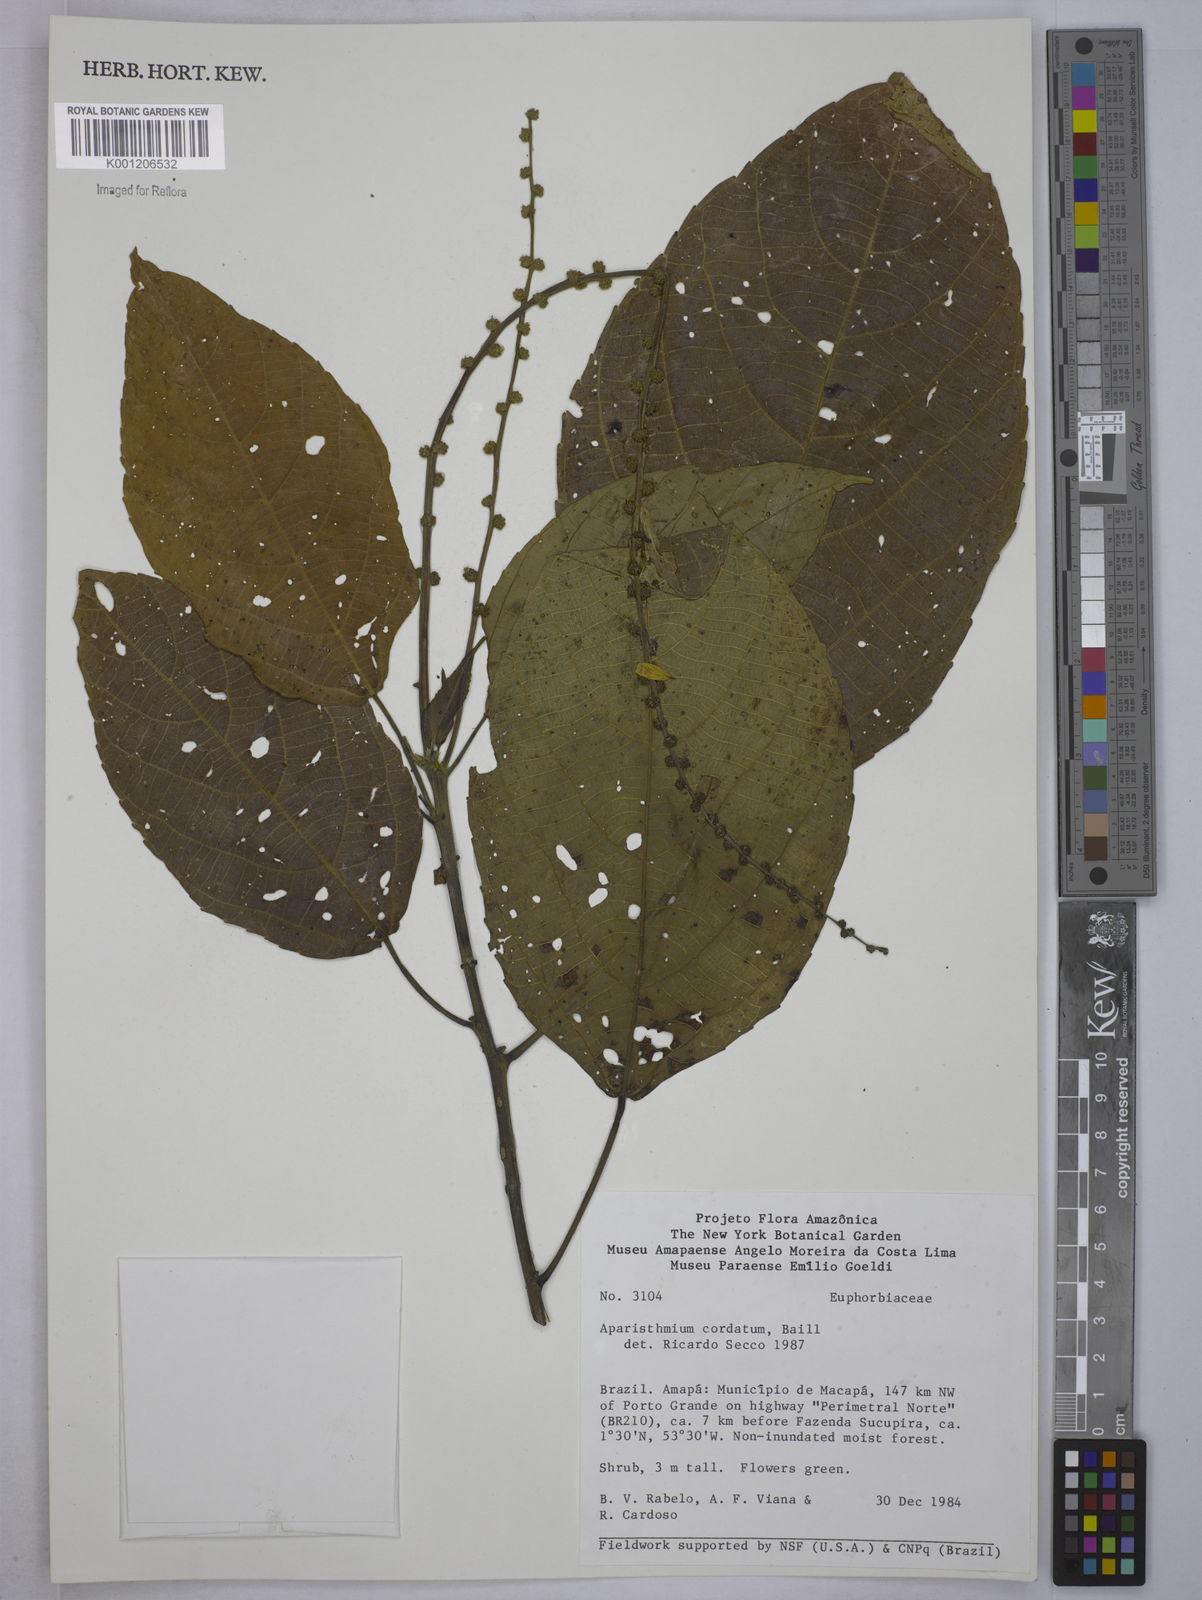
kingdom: Plantae
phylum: Tracheophyta
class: Magnoliopsida
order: Malpighiales
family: Euphorbiaceae
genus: Aparisthmium
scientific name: Aparisthmium cordatum
